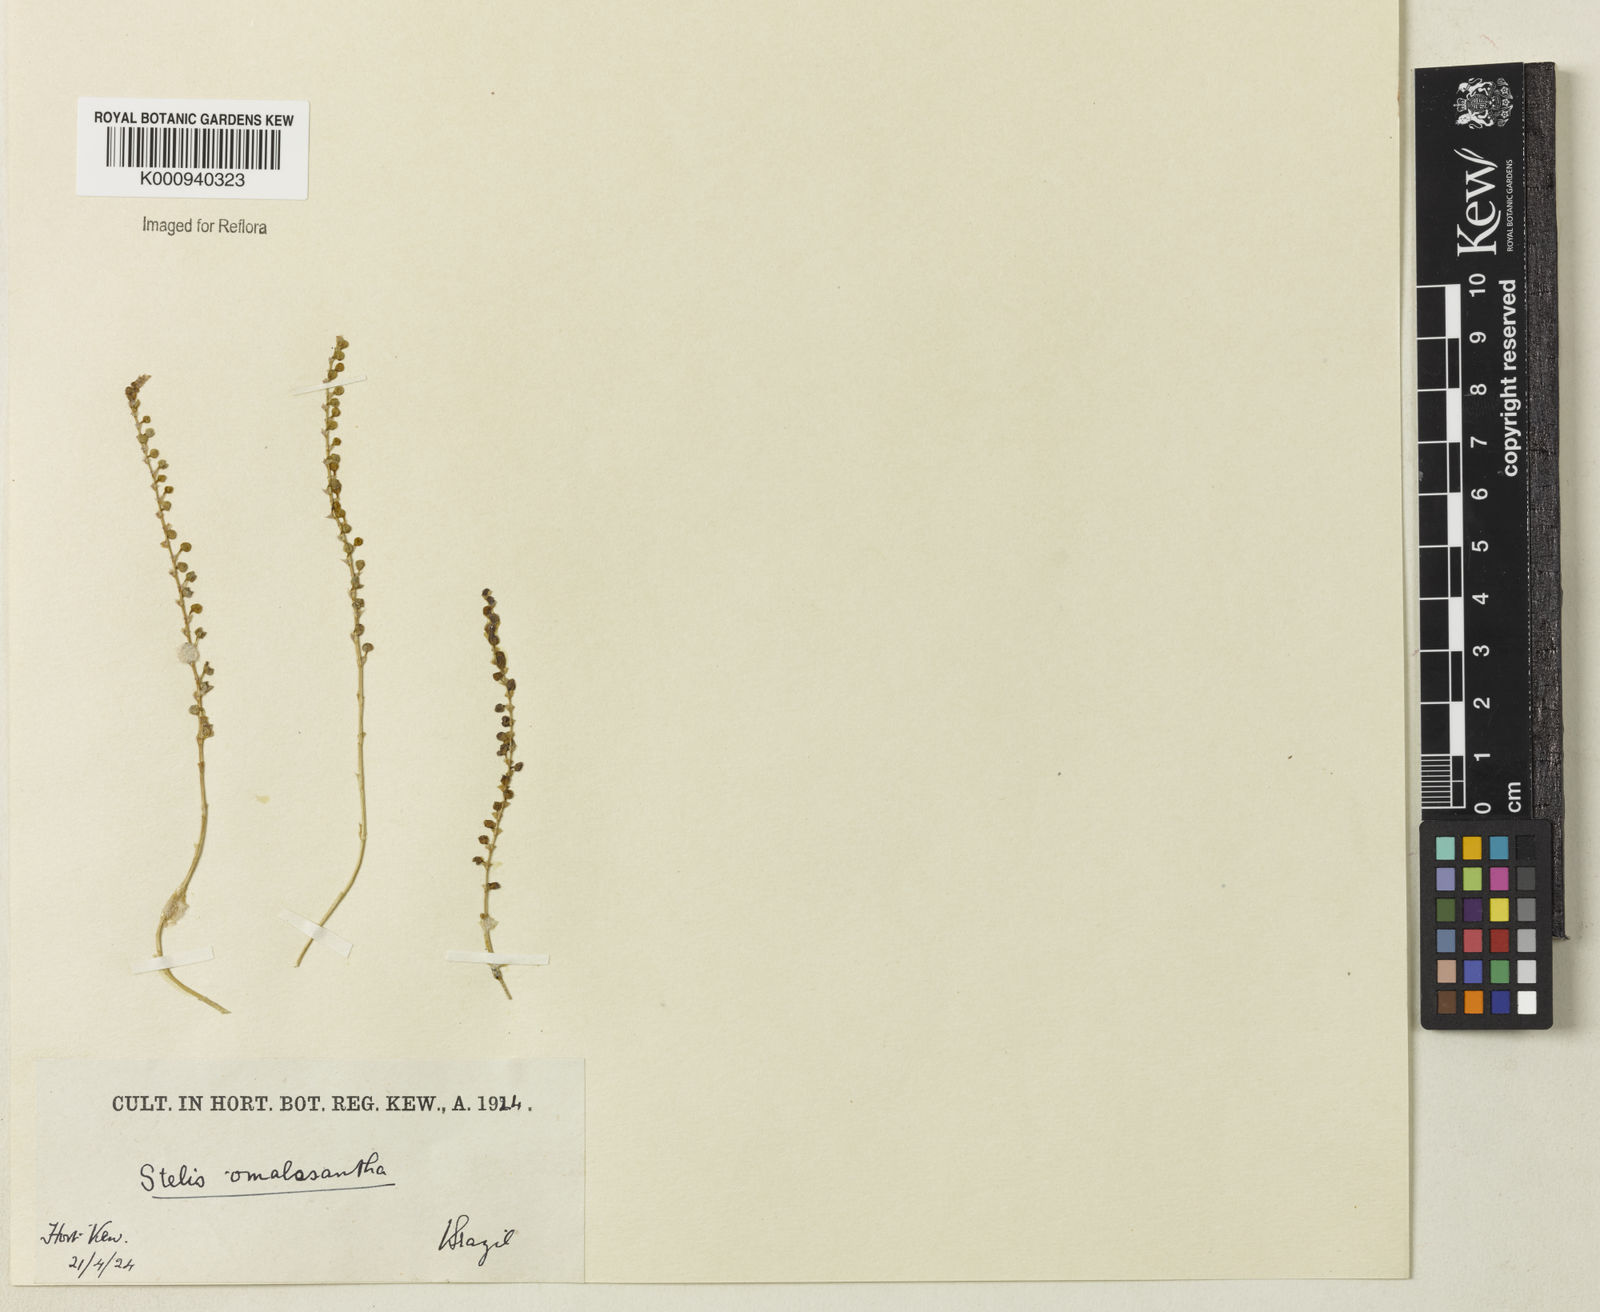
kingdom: Plantae
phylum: Tracheophyta
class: Liliopsida
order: Asparagales
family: Orchidaceae
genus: Stelis
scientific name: Stelis pauciflora
